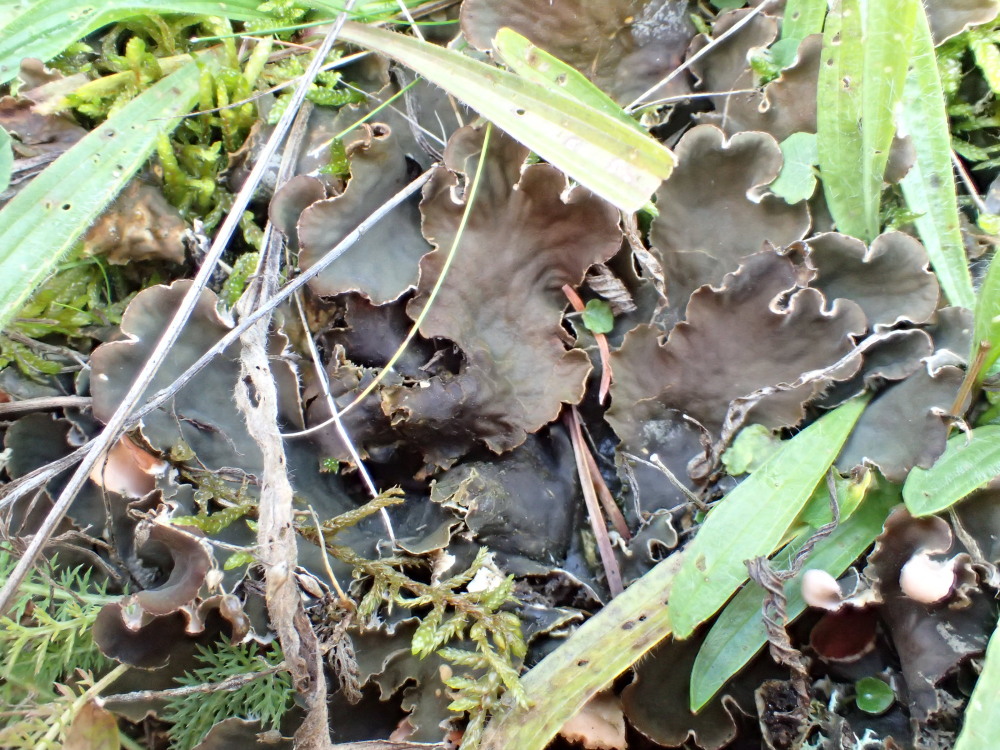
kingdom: Fungi
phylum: Ascomycota
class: Lecanoromycetes
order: Peltigerales
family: Peltigeraceae
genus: Peltigera
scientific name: Peltigera canina
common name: hunde-skjoldlav
